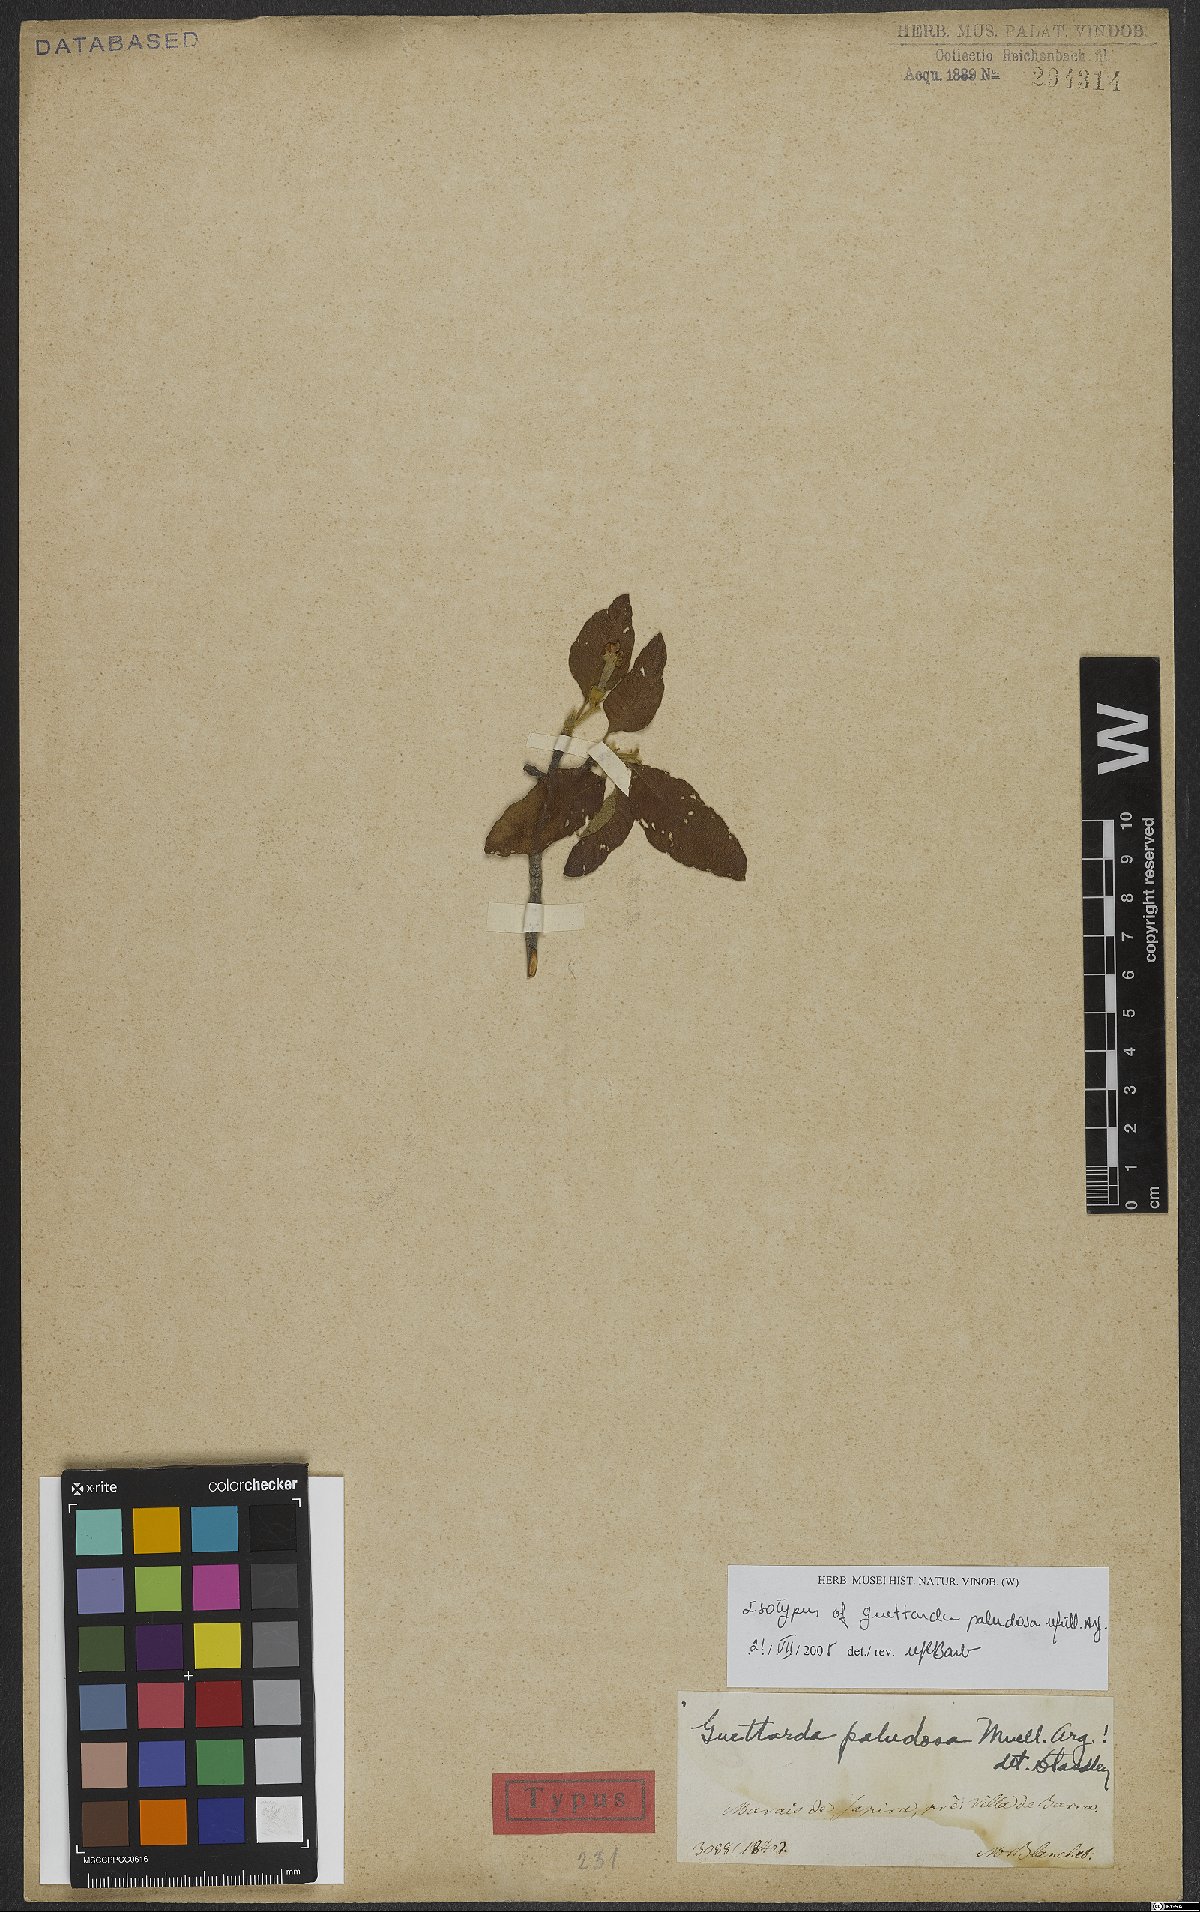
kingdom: Plantae
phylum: Tracheophyta
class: Magnoliopsida
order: Gentianales
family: Rubiaceae
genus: Guettarda
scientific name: Guettarda paludosa
